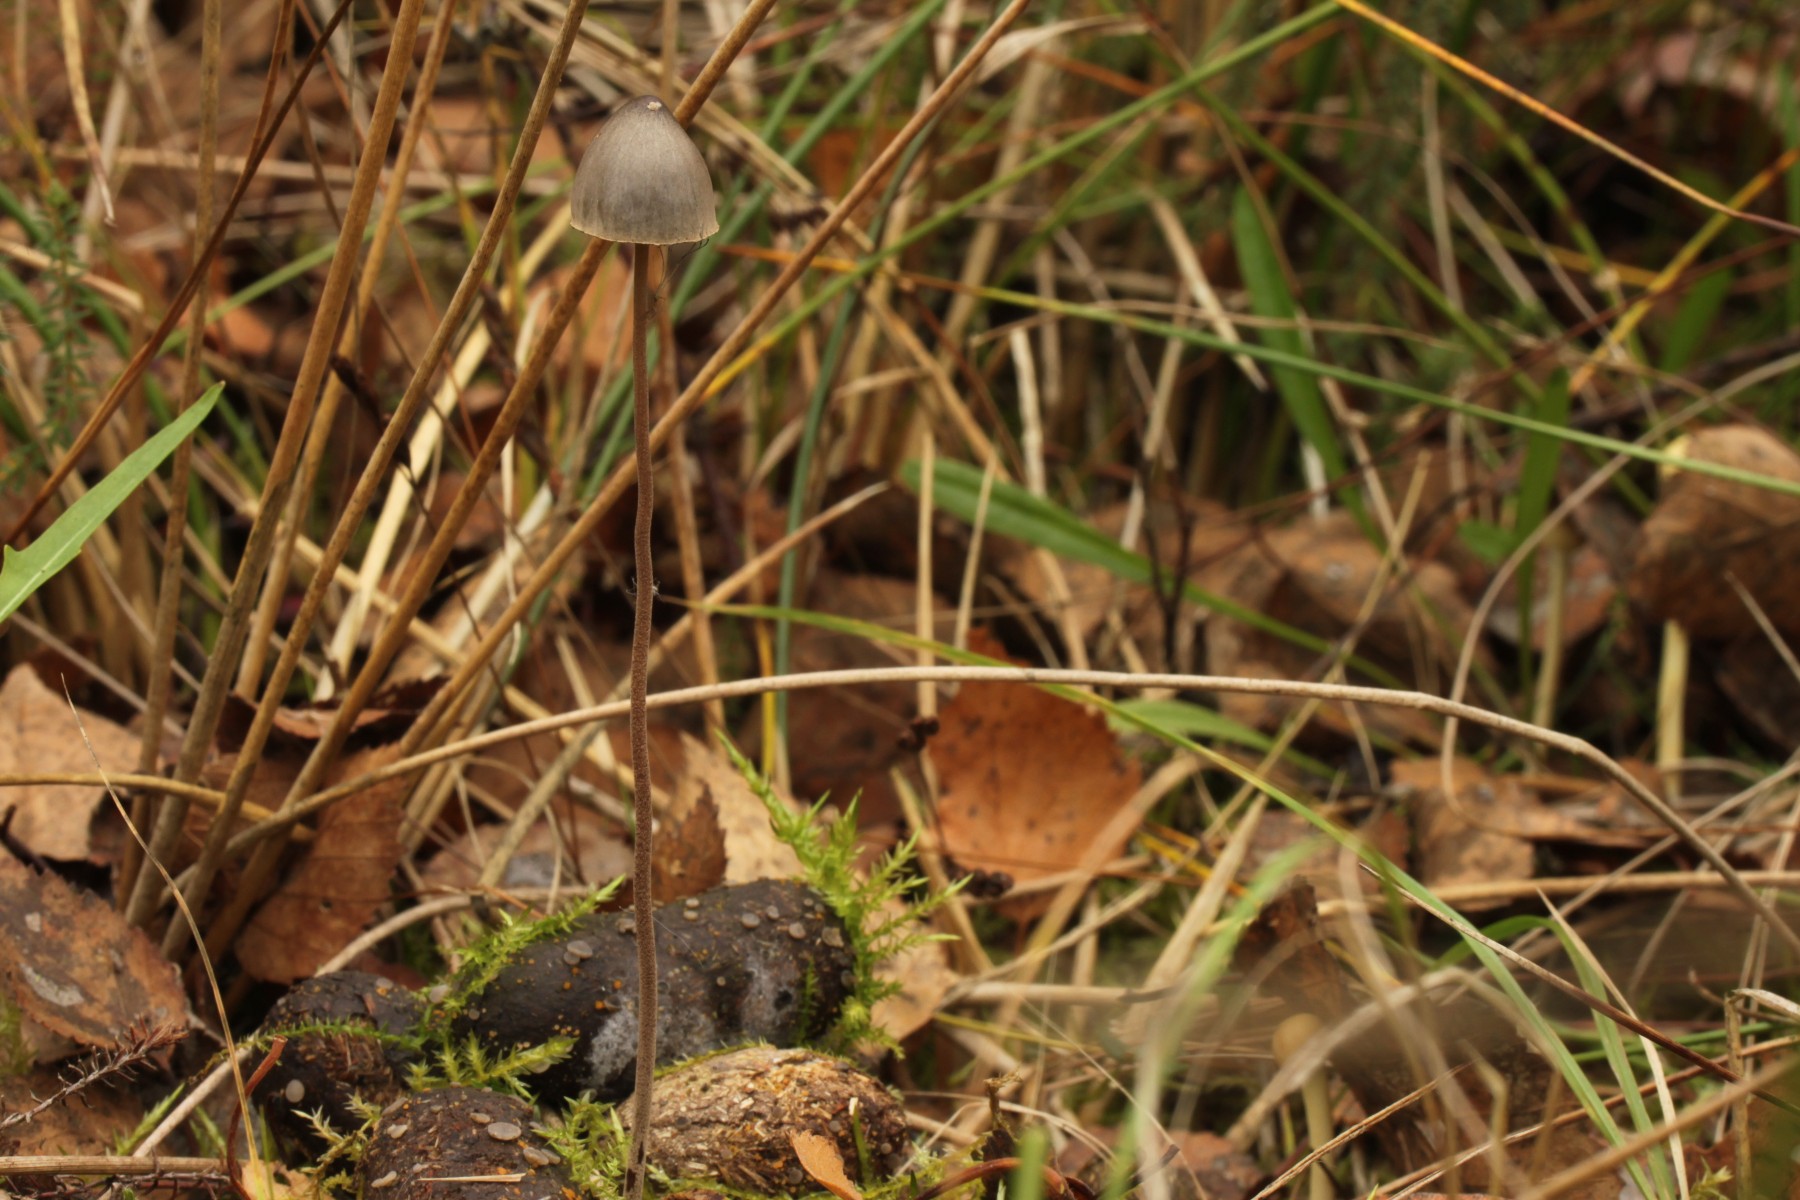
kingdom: Fungi
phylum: Basidiomycota
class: Agaricomycetes
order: Agaricales
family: Bolbitiaceae
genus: Panaeolus
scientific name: Panaeolus alcis
